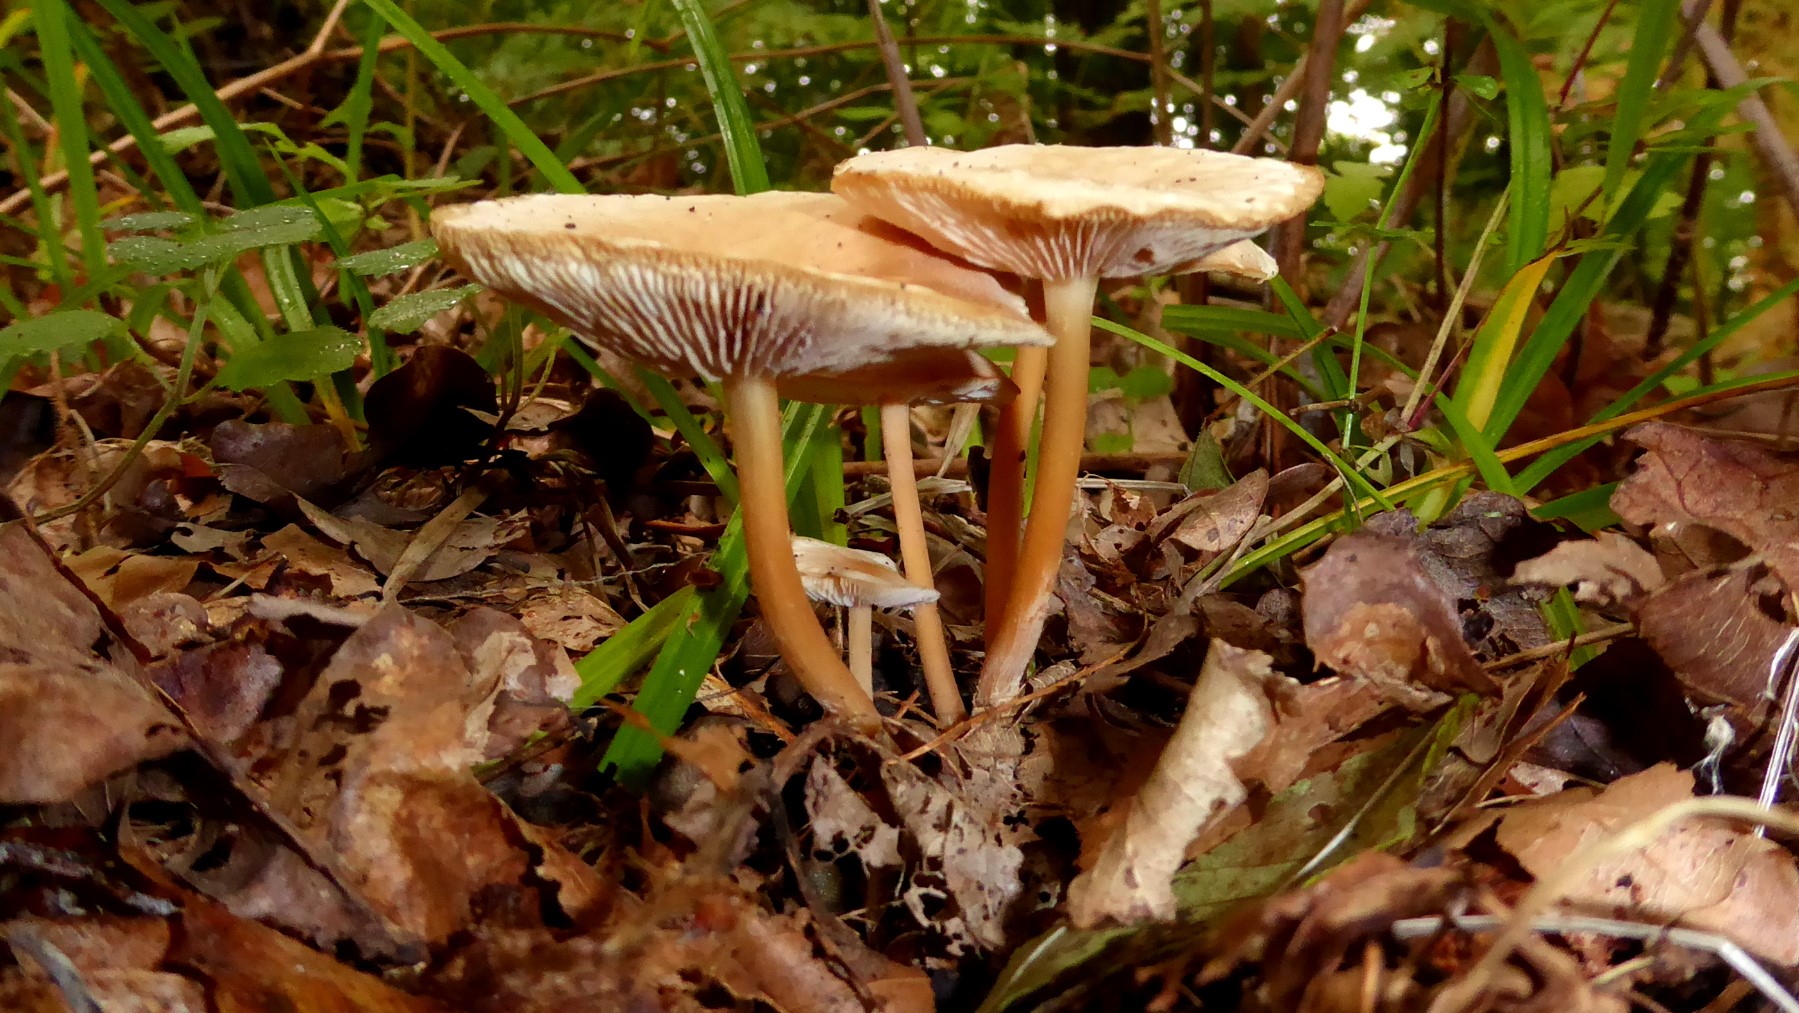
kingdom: Fungi
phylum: Basidiomycota
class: Agaricomycetes
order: Agaricales
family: Omphalotaceae
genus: Gymnopus
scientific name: Gymnopus dryophilus
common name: løv-fladhat
